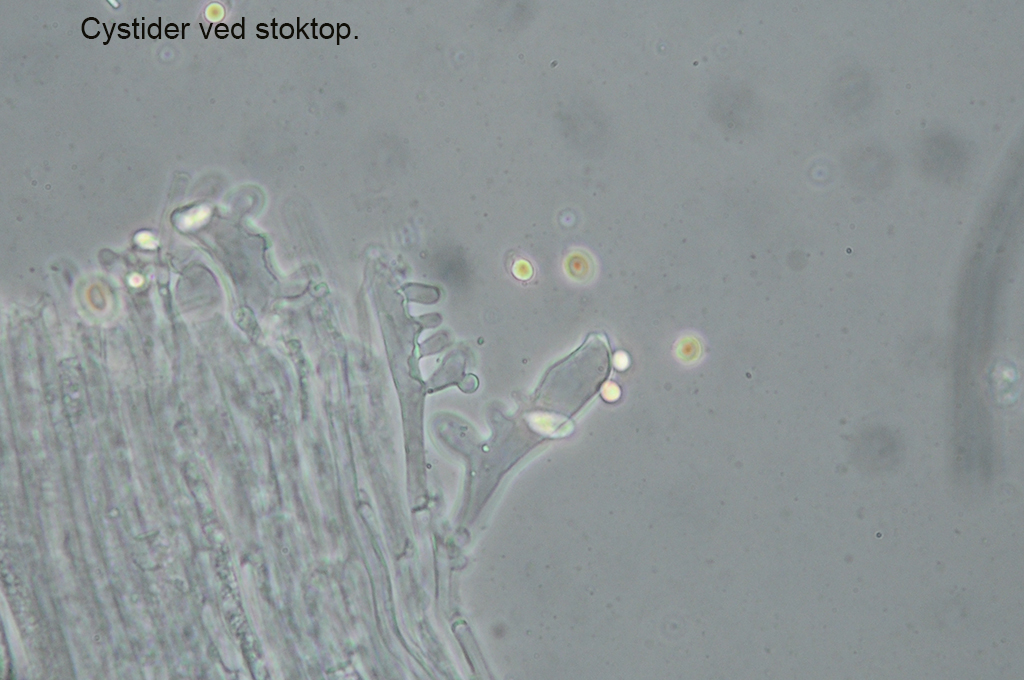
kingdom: Fungi
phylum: Basidiomycota
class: Agaricomycetes
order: Agaricales
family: Mycenaceae
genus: Mycena
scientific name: Mycena leptocephala
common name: klor-huesvamp
